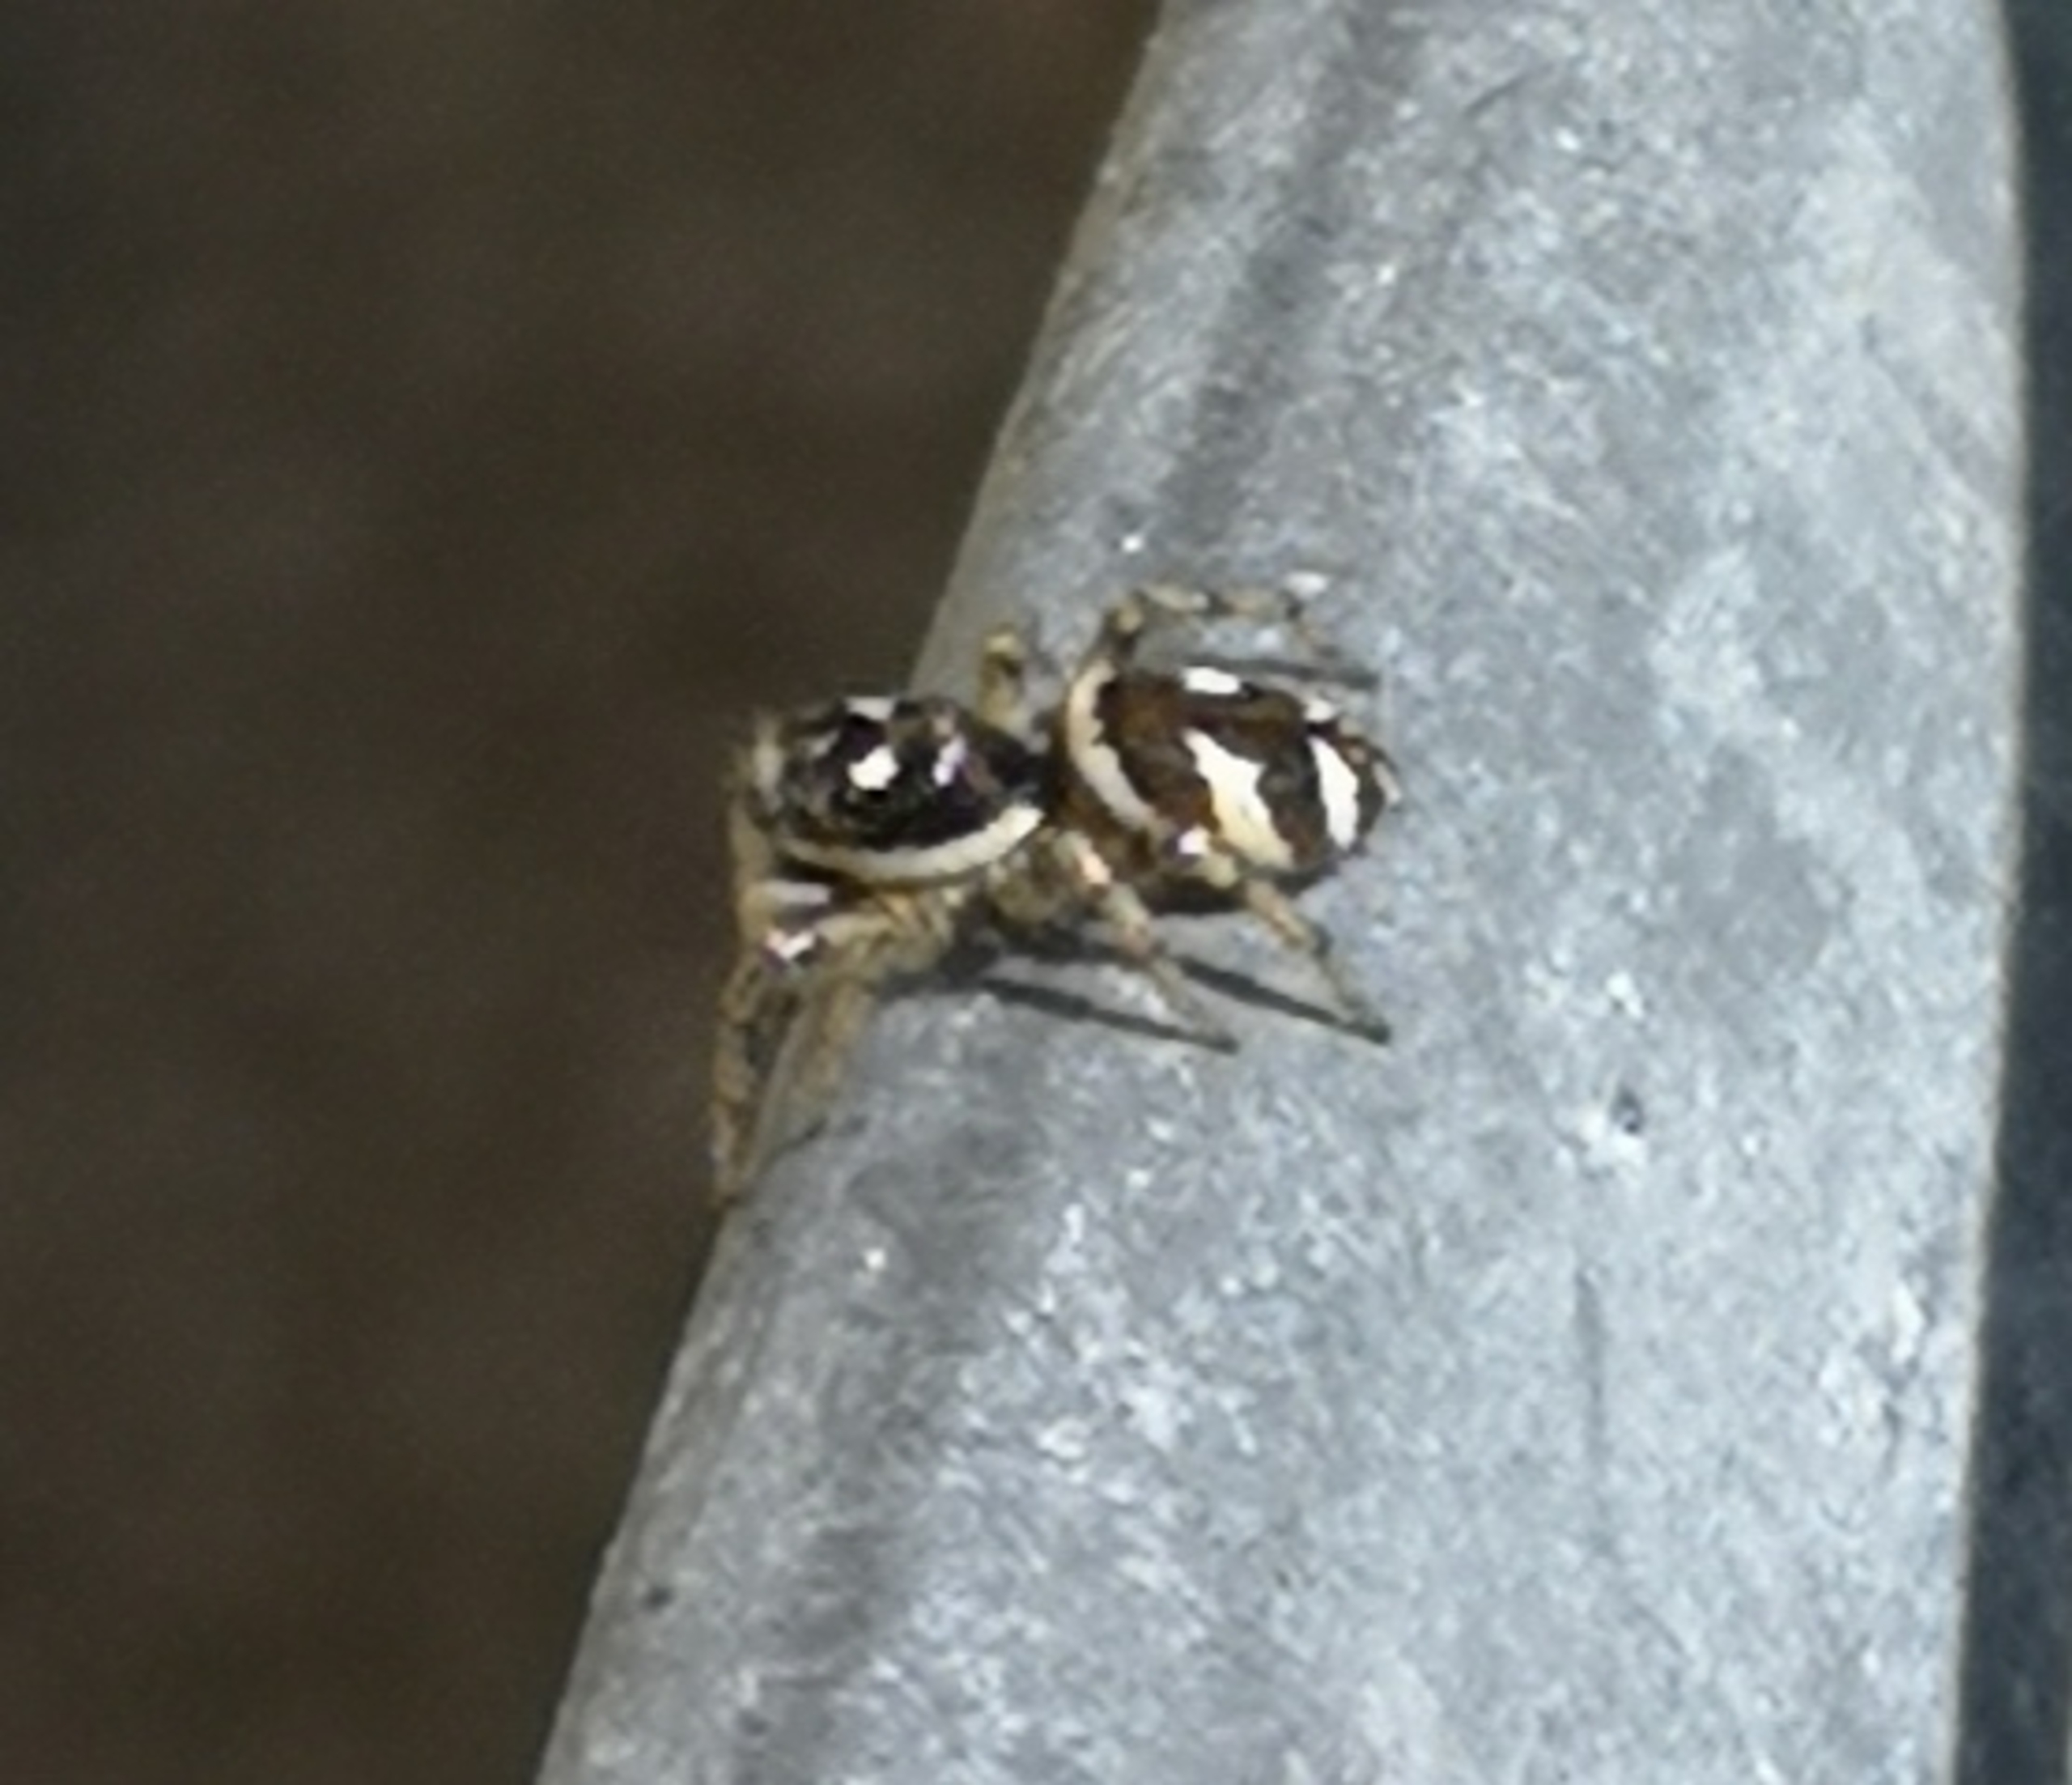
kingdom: Animalia
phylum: Arthropoda
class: Arachnida
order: Araneae
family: Salticidae
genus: Salticus
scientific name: Salticus scenicus
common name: Almindelig zebraedderkop
